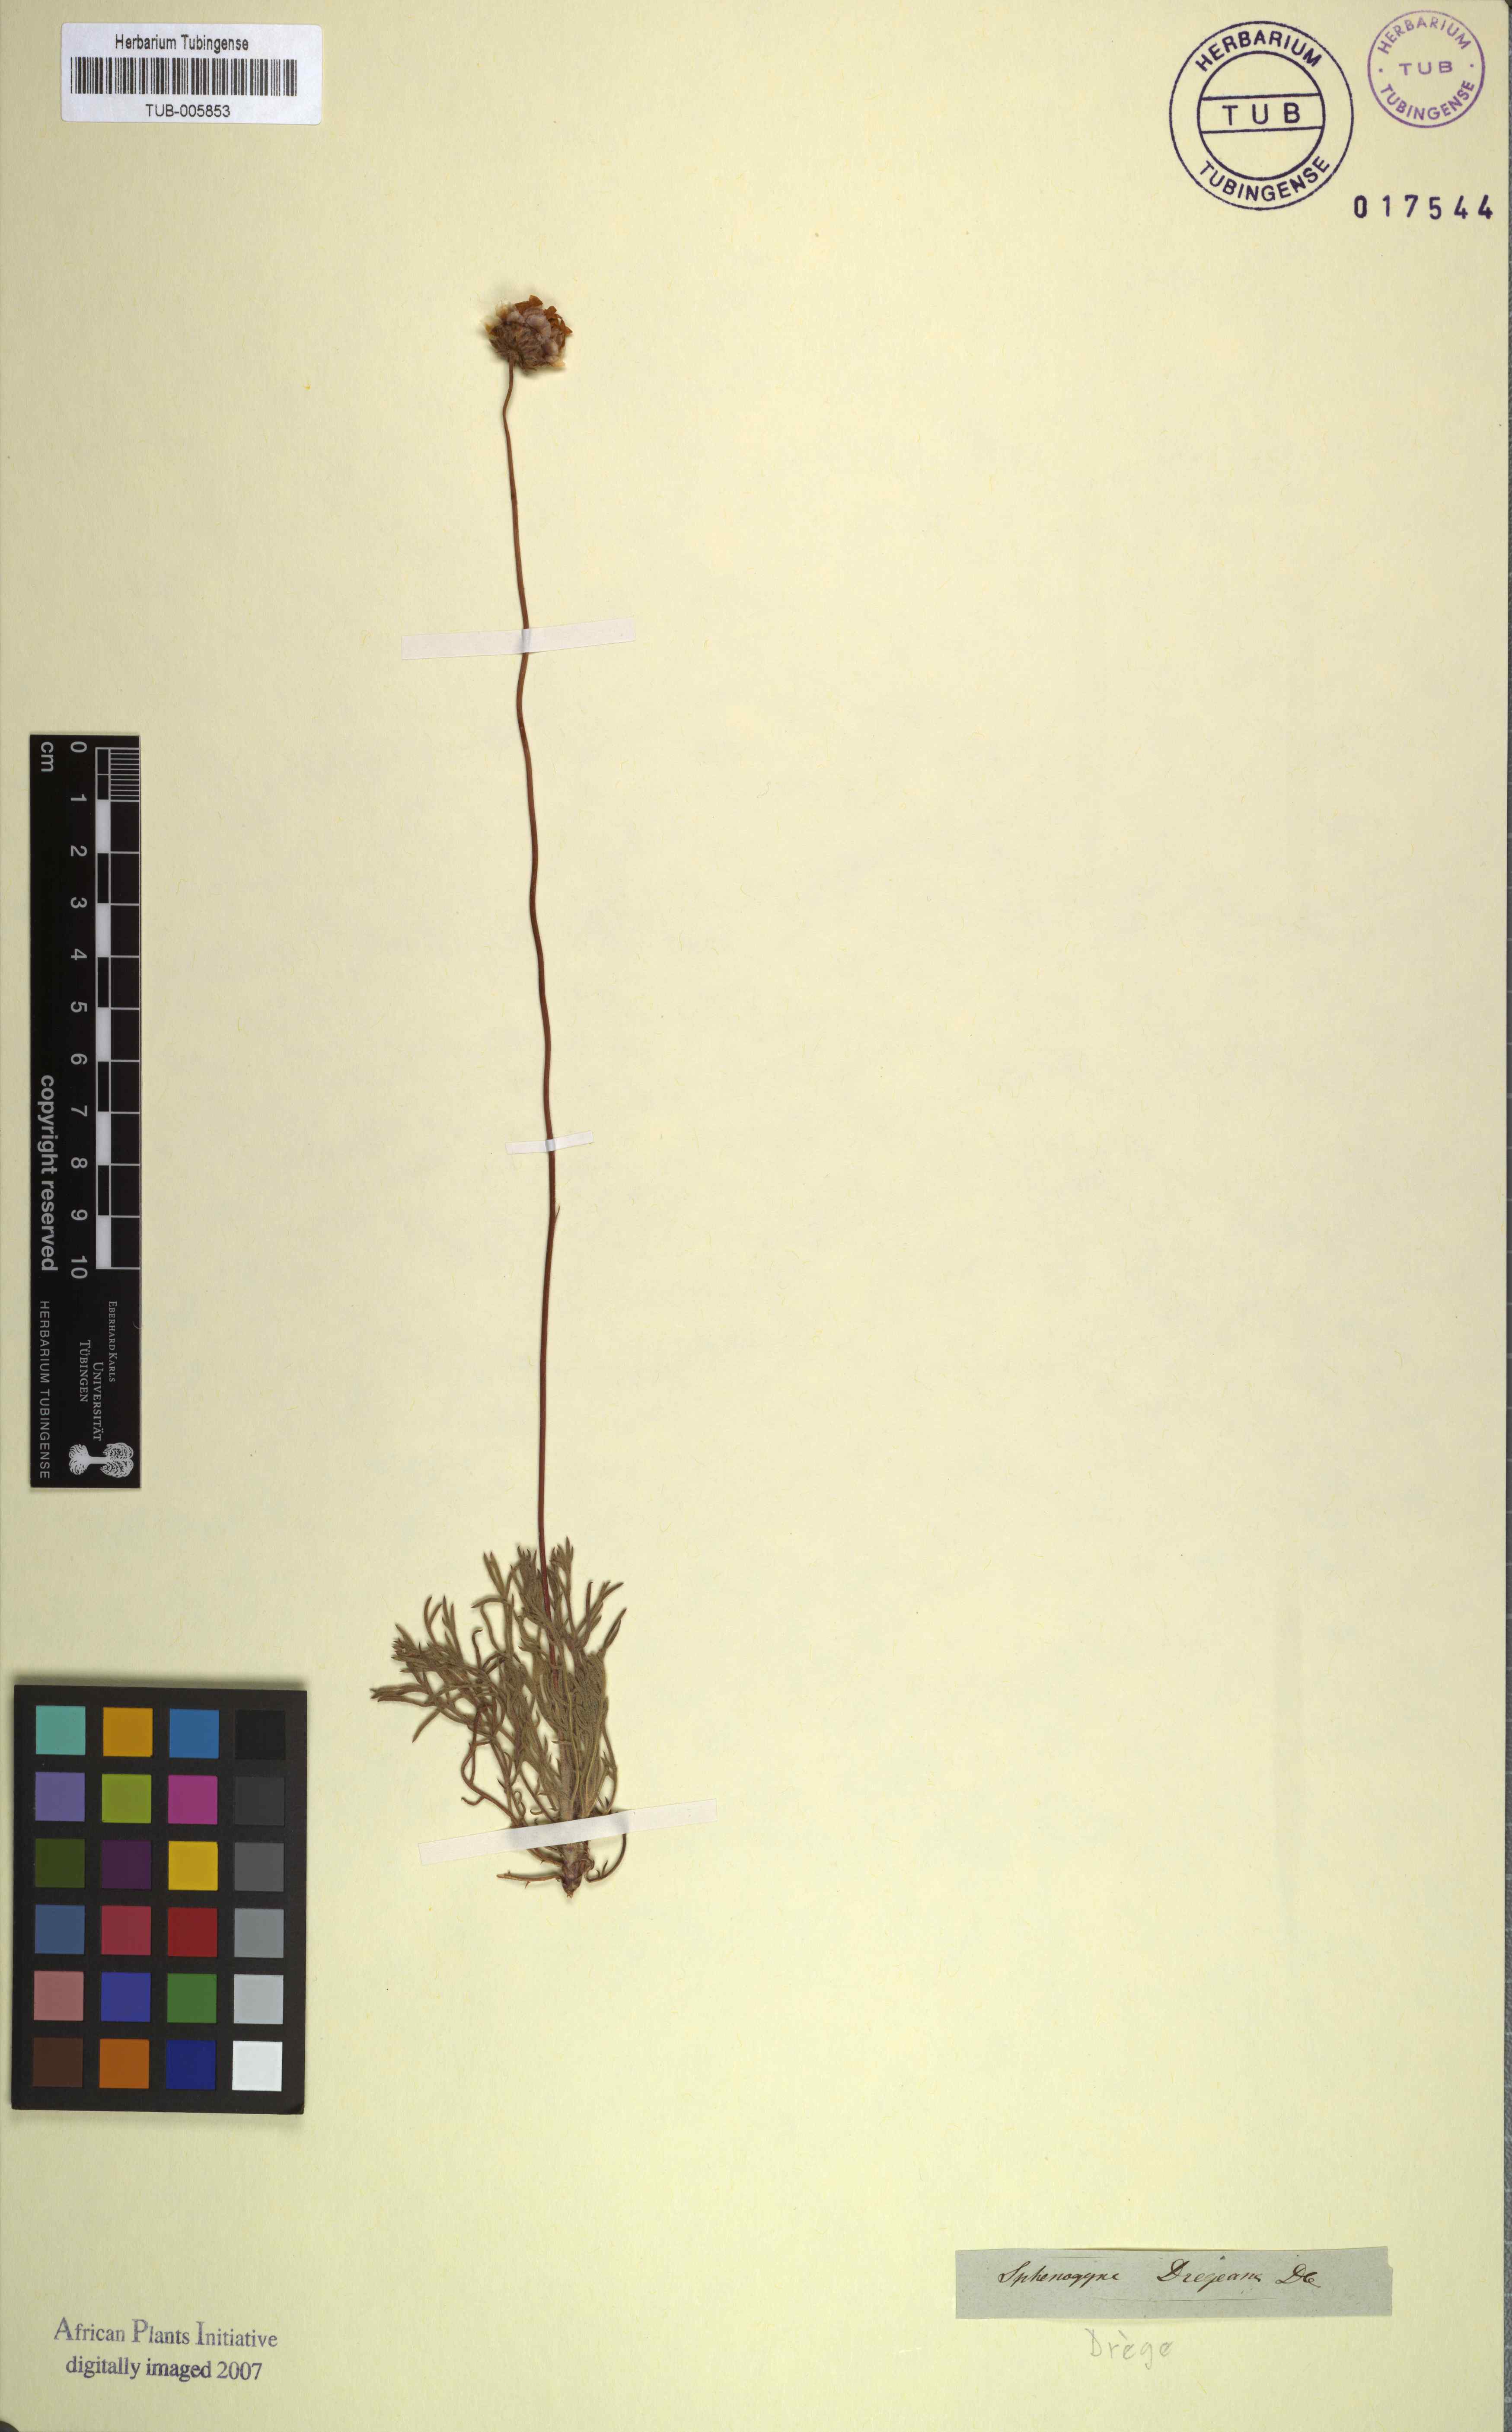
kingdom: Plantae
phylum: Tracheophyta
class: Magnoliopsida
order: Asterales
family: Asteraceae
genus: Ursinia
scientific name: Ursinia dregeana
